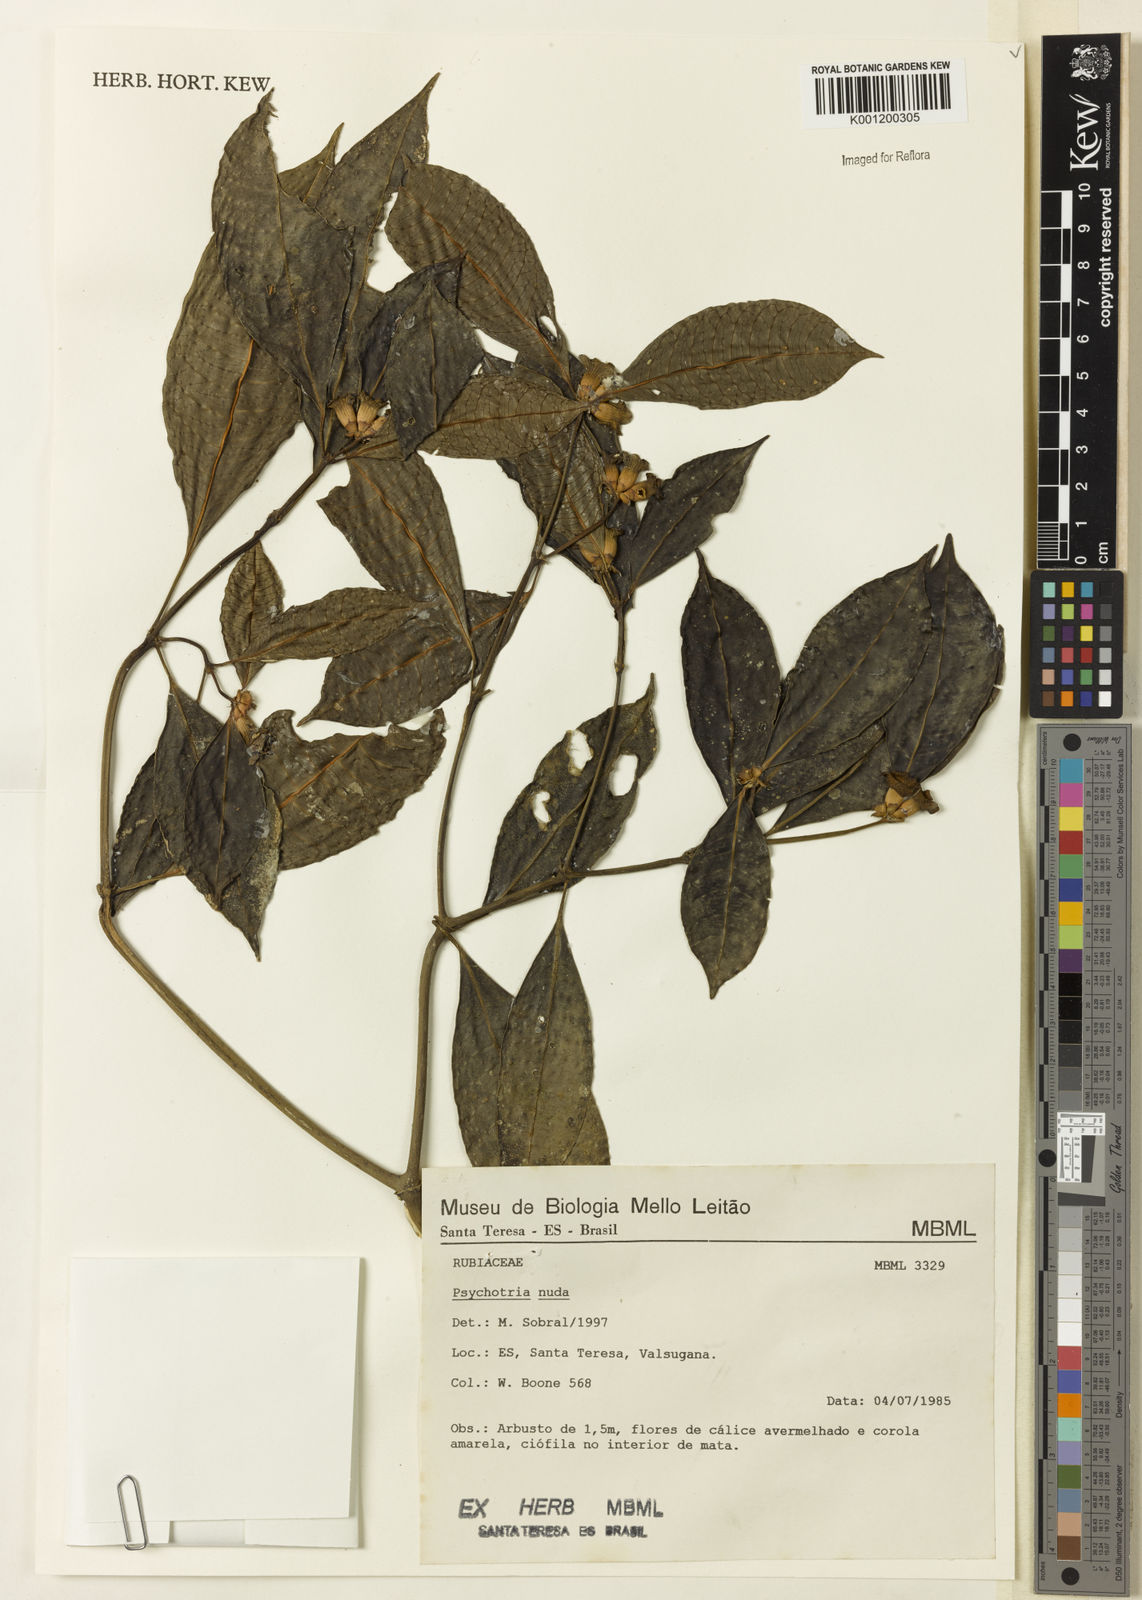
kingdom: Plantae
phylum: Tracheophyta
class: Magnoliopsida
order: Gentianales
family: Rubiaceae
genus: Psychotria
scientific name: Psychotria nuda
